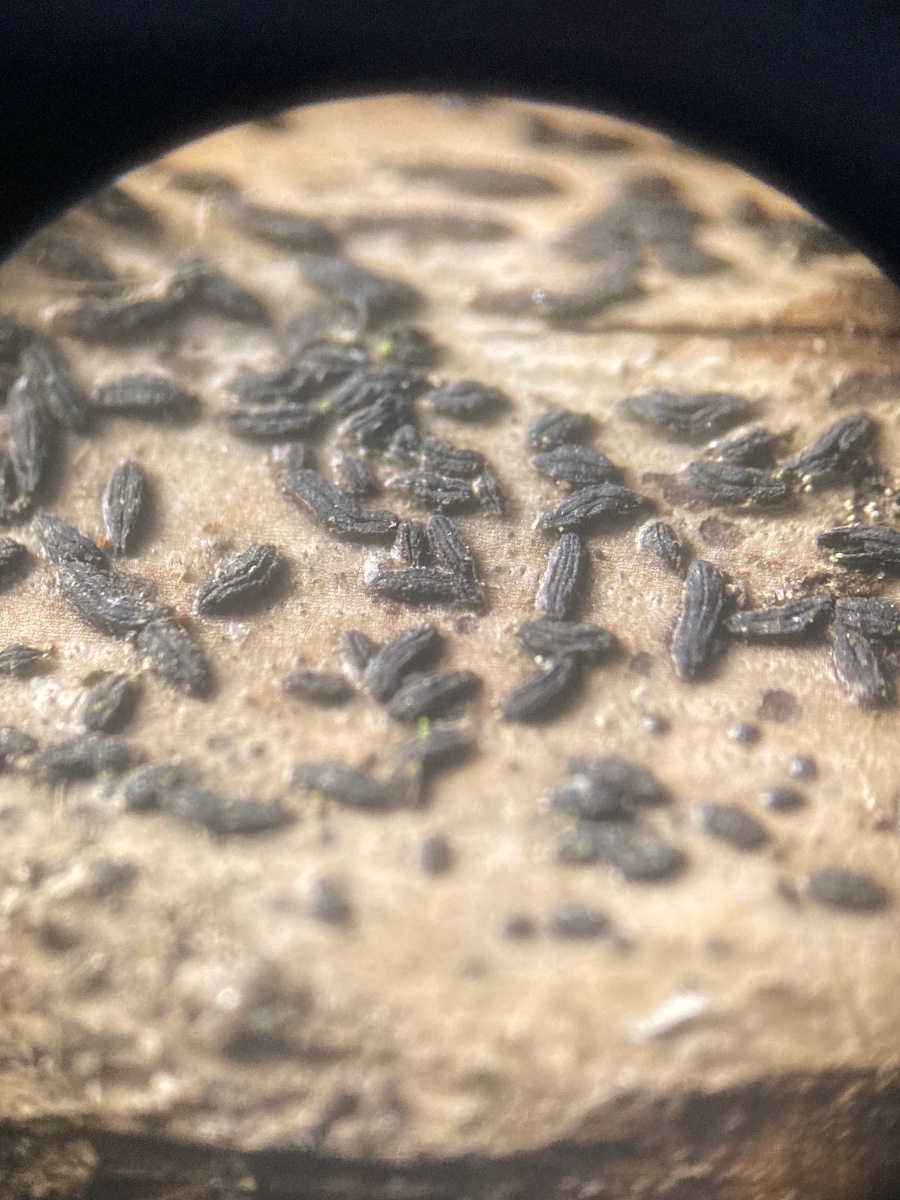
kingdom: Fungi
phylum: Ascomycota
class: Dothideomycetes
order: Hysteriales
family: Hysteriaceae
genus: Gloniopsis
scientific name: Gloniopsis praelonga
